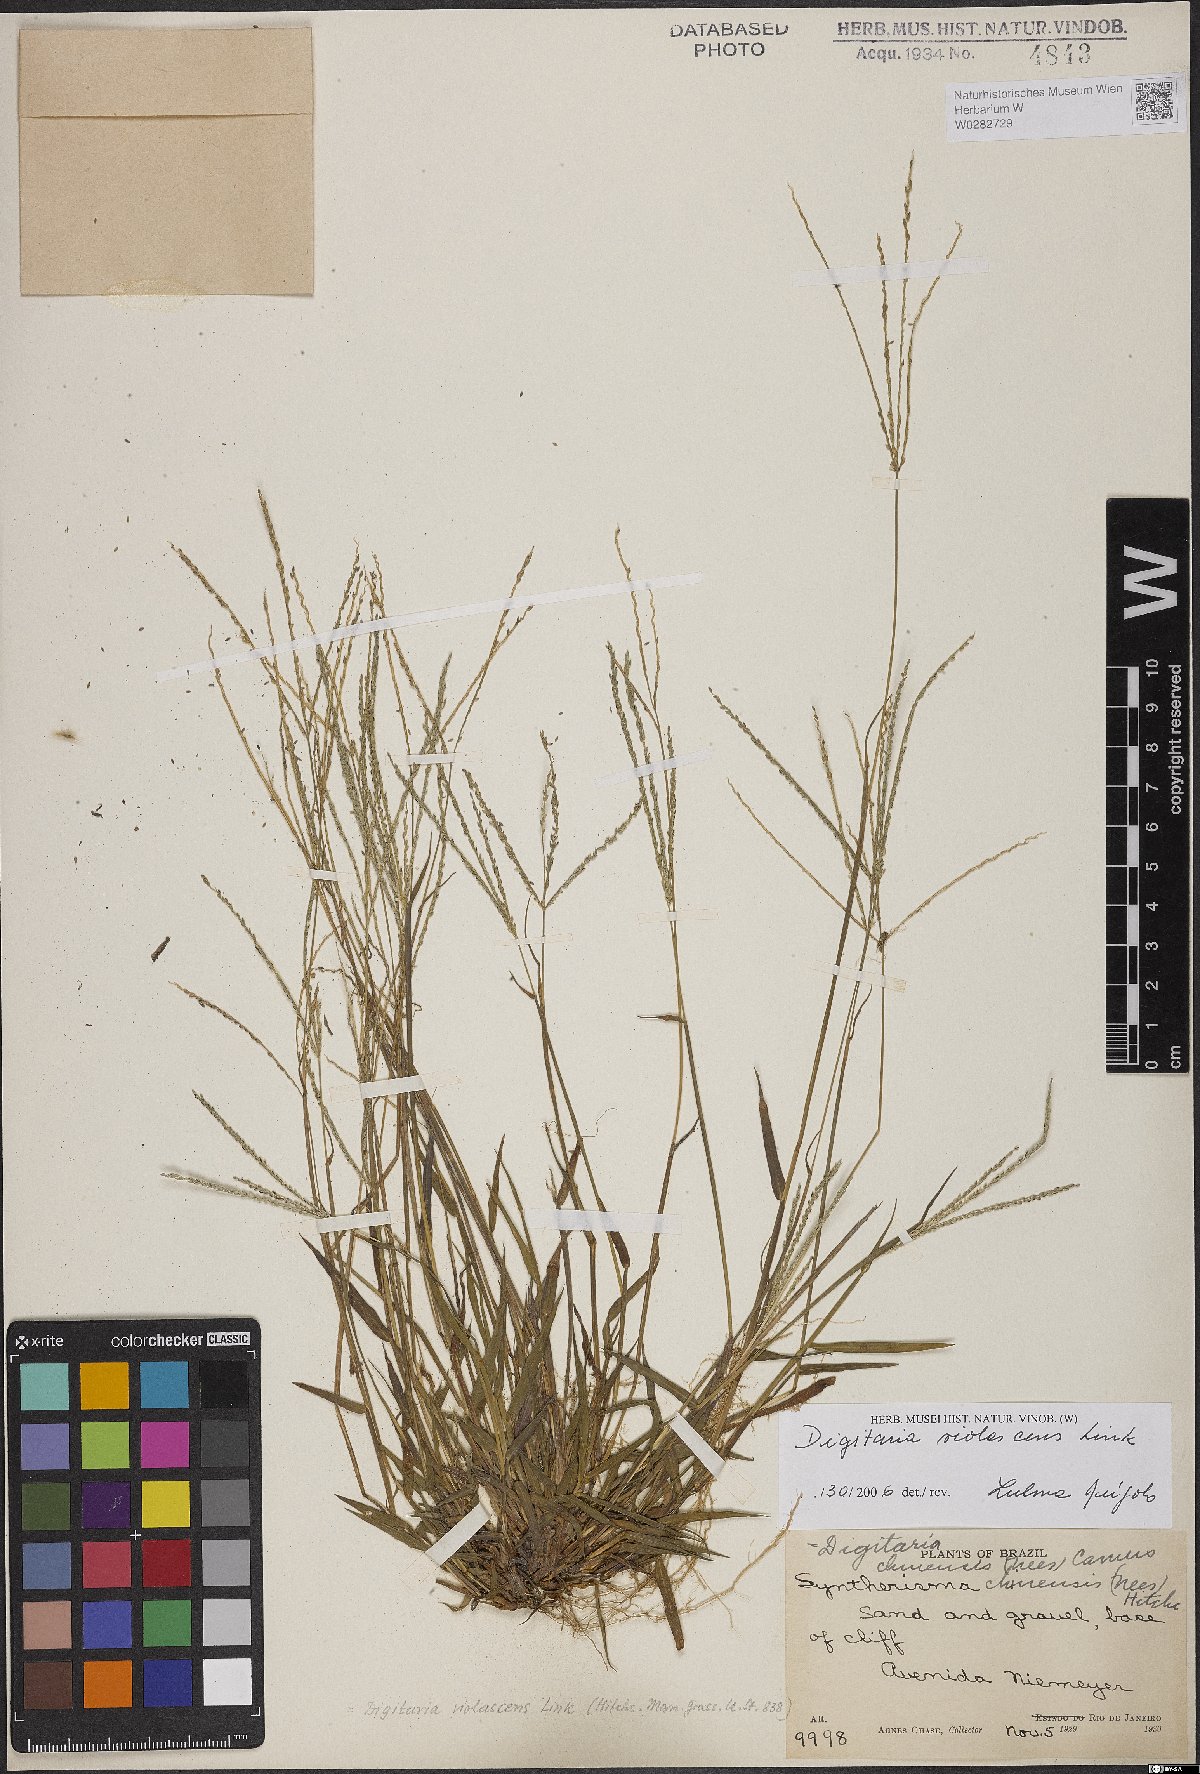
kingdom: Plantae
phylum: Tracheophyta
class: Liliopsida
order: Poales
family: Poaceae
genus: Digitaria
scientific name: Digitaria violascens
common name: Violet crabgrass
